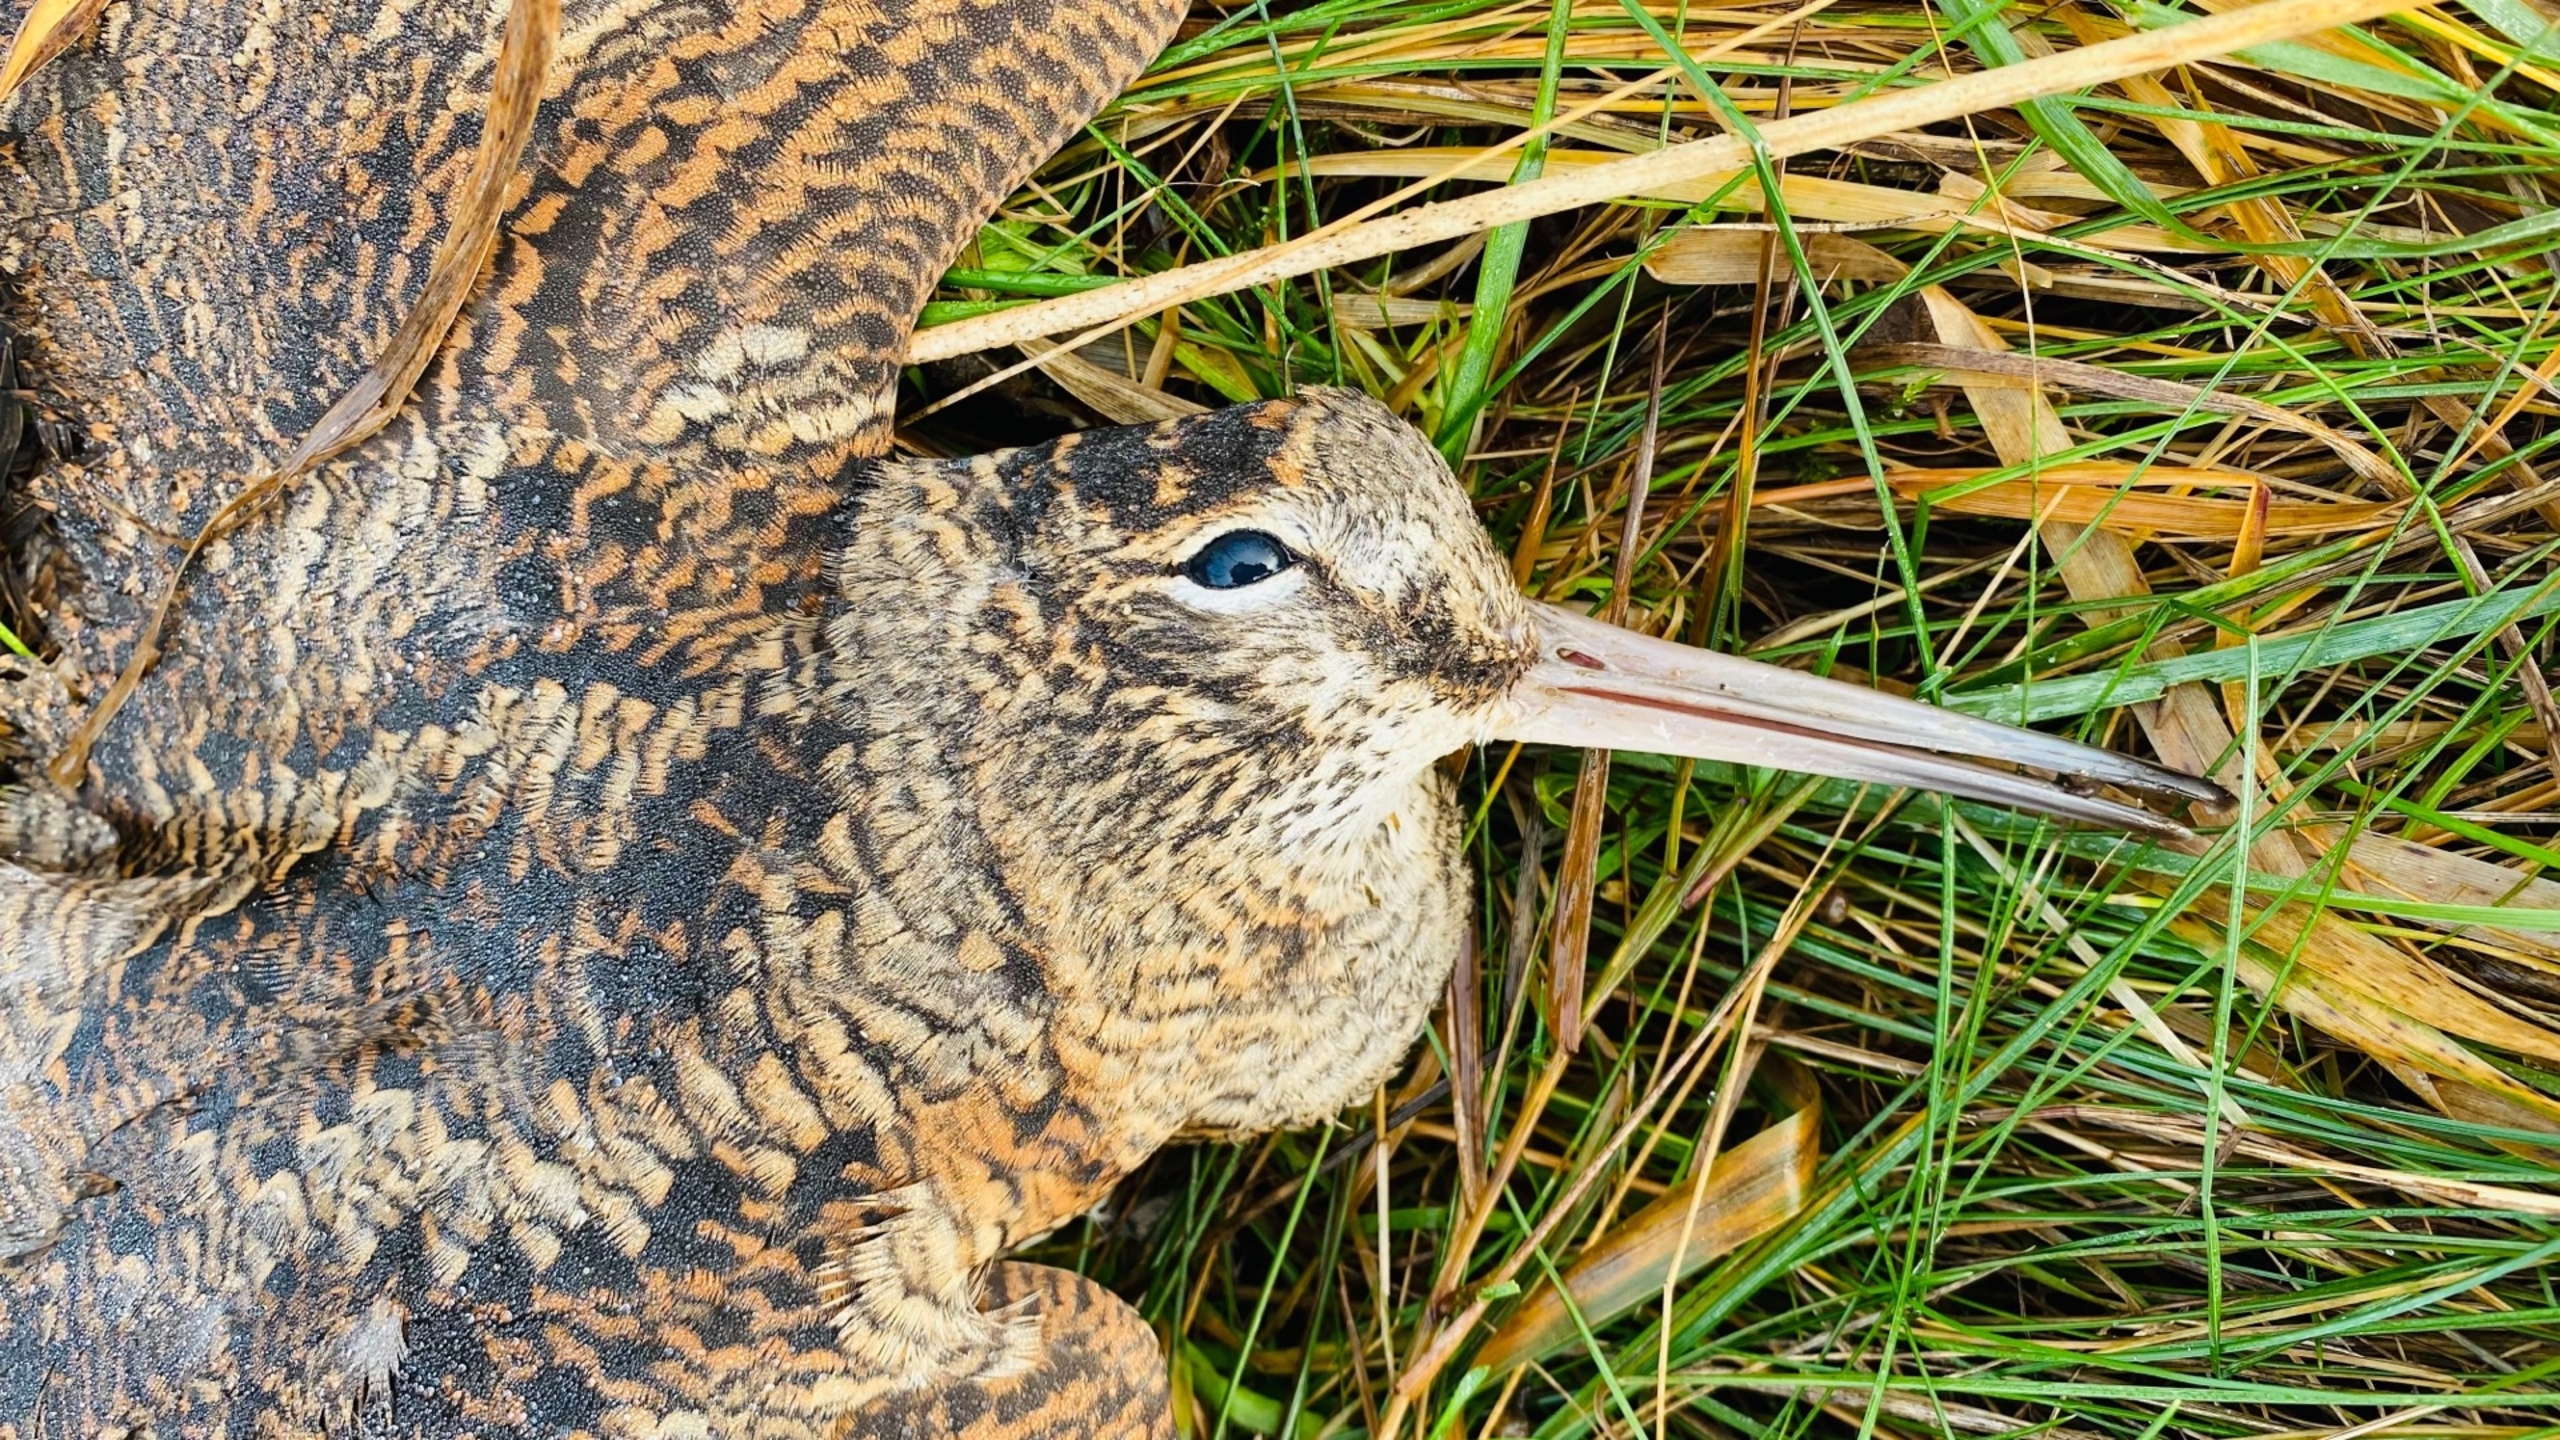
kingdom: Animalia
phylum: Chordata
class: Aves
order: Charadriiformes
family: Scolopacidae
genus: Scolopax
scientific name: Scolopax rusticola
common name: Skovsneppe
